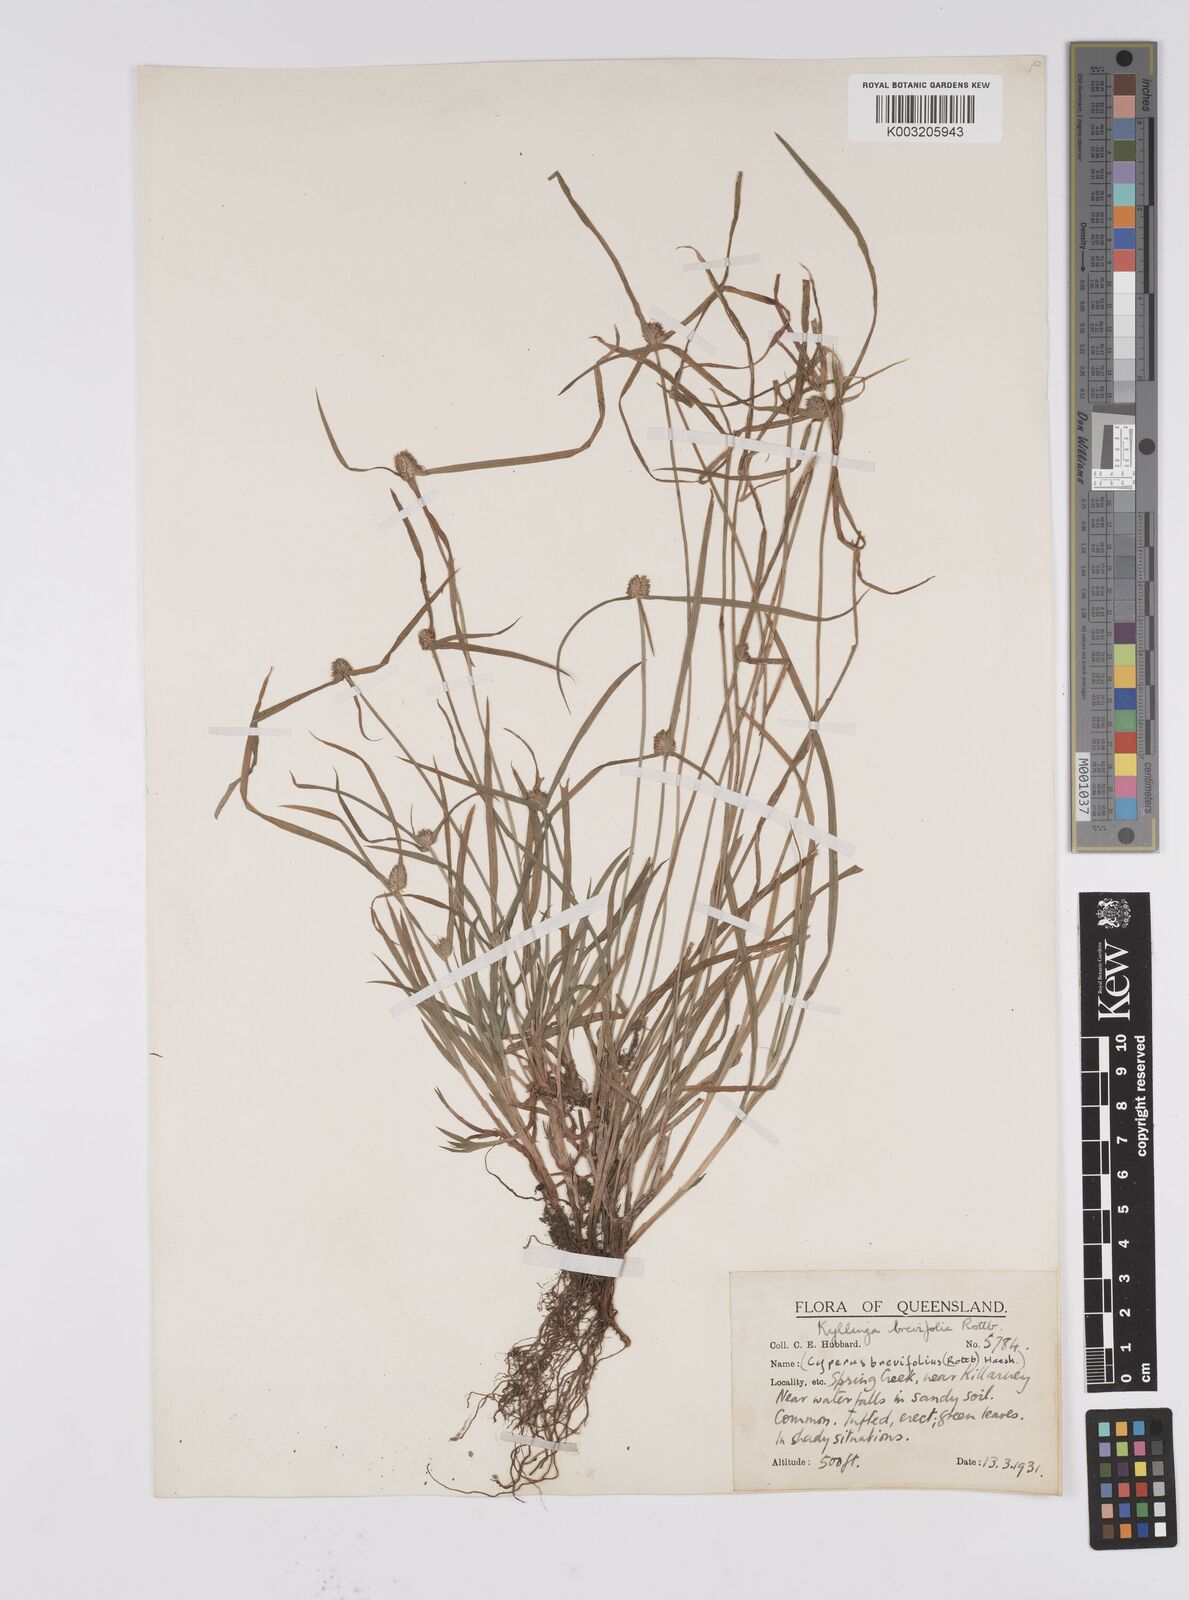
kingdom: Plantae
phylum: Tracheophyta
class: Liliopsida
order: Poales
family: Cyperaceae
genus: Cyperus
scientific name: Cyperus brevifolius
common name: Globe kyllinga
